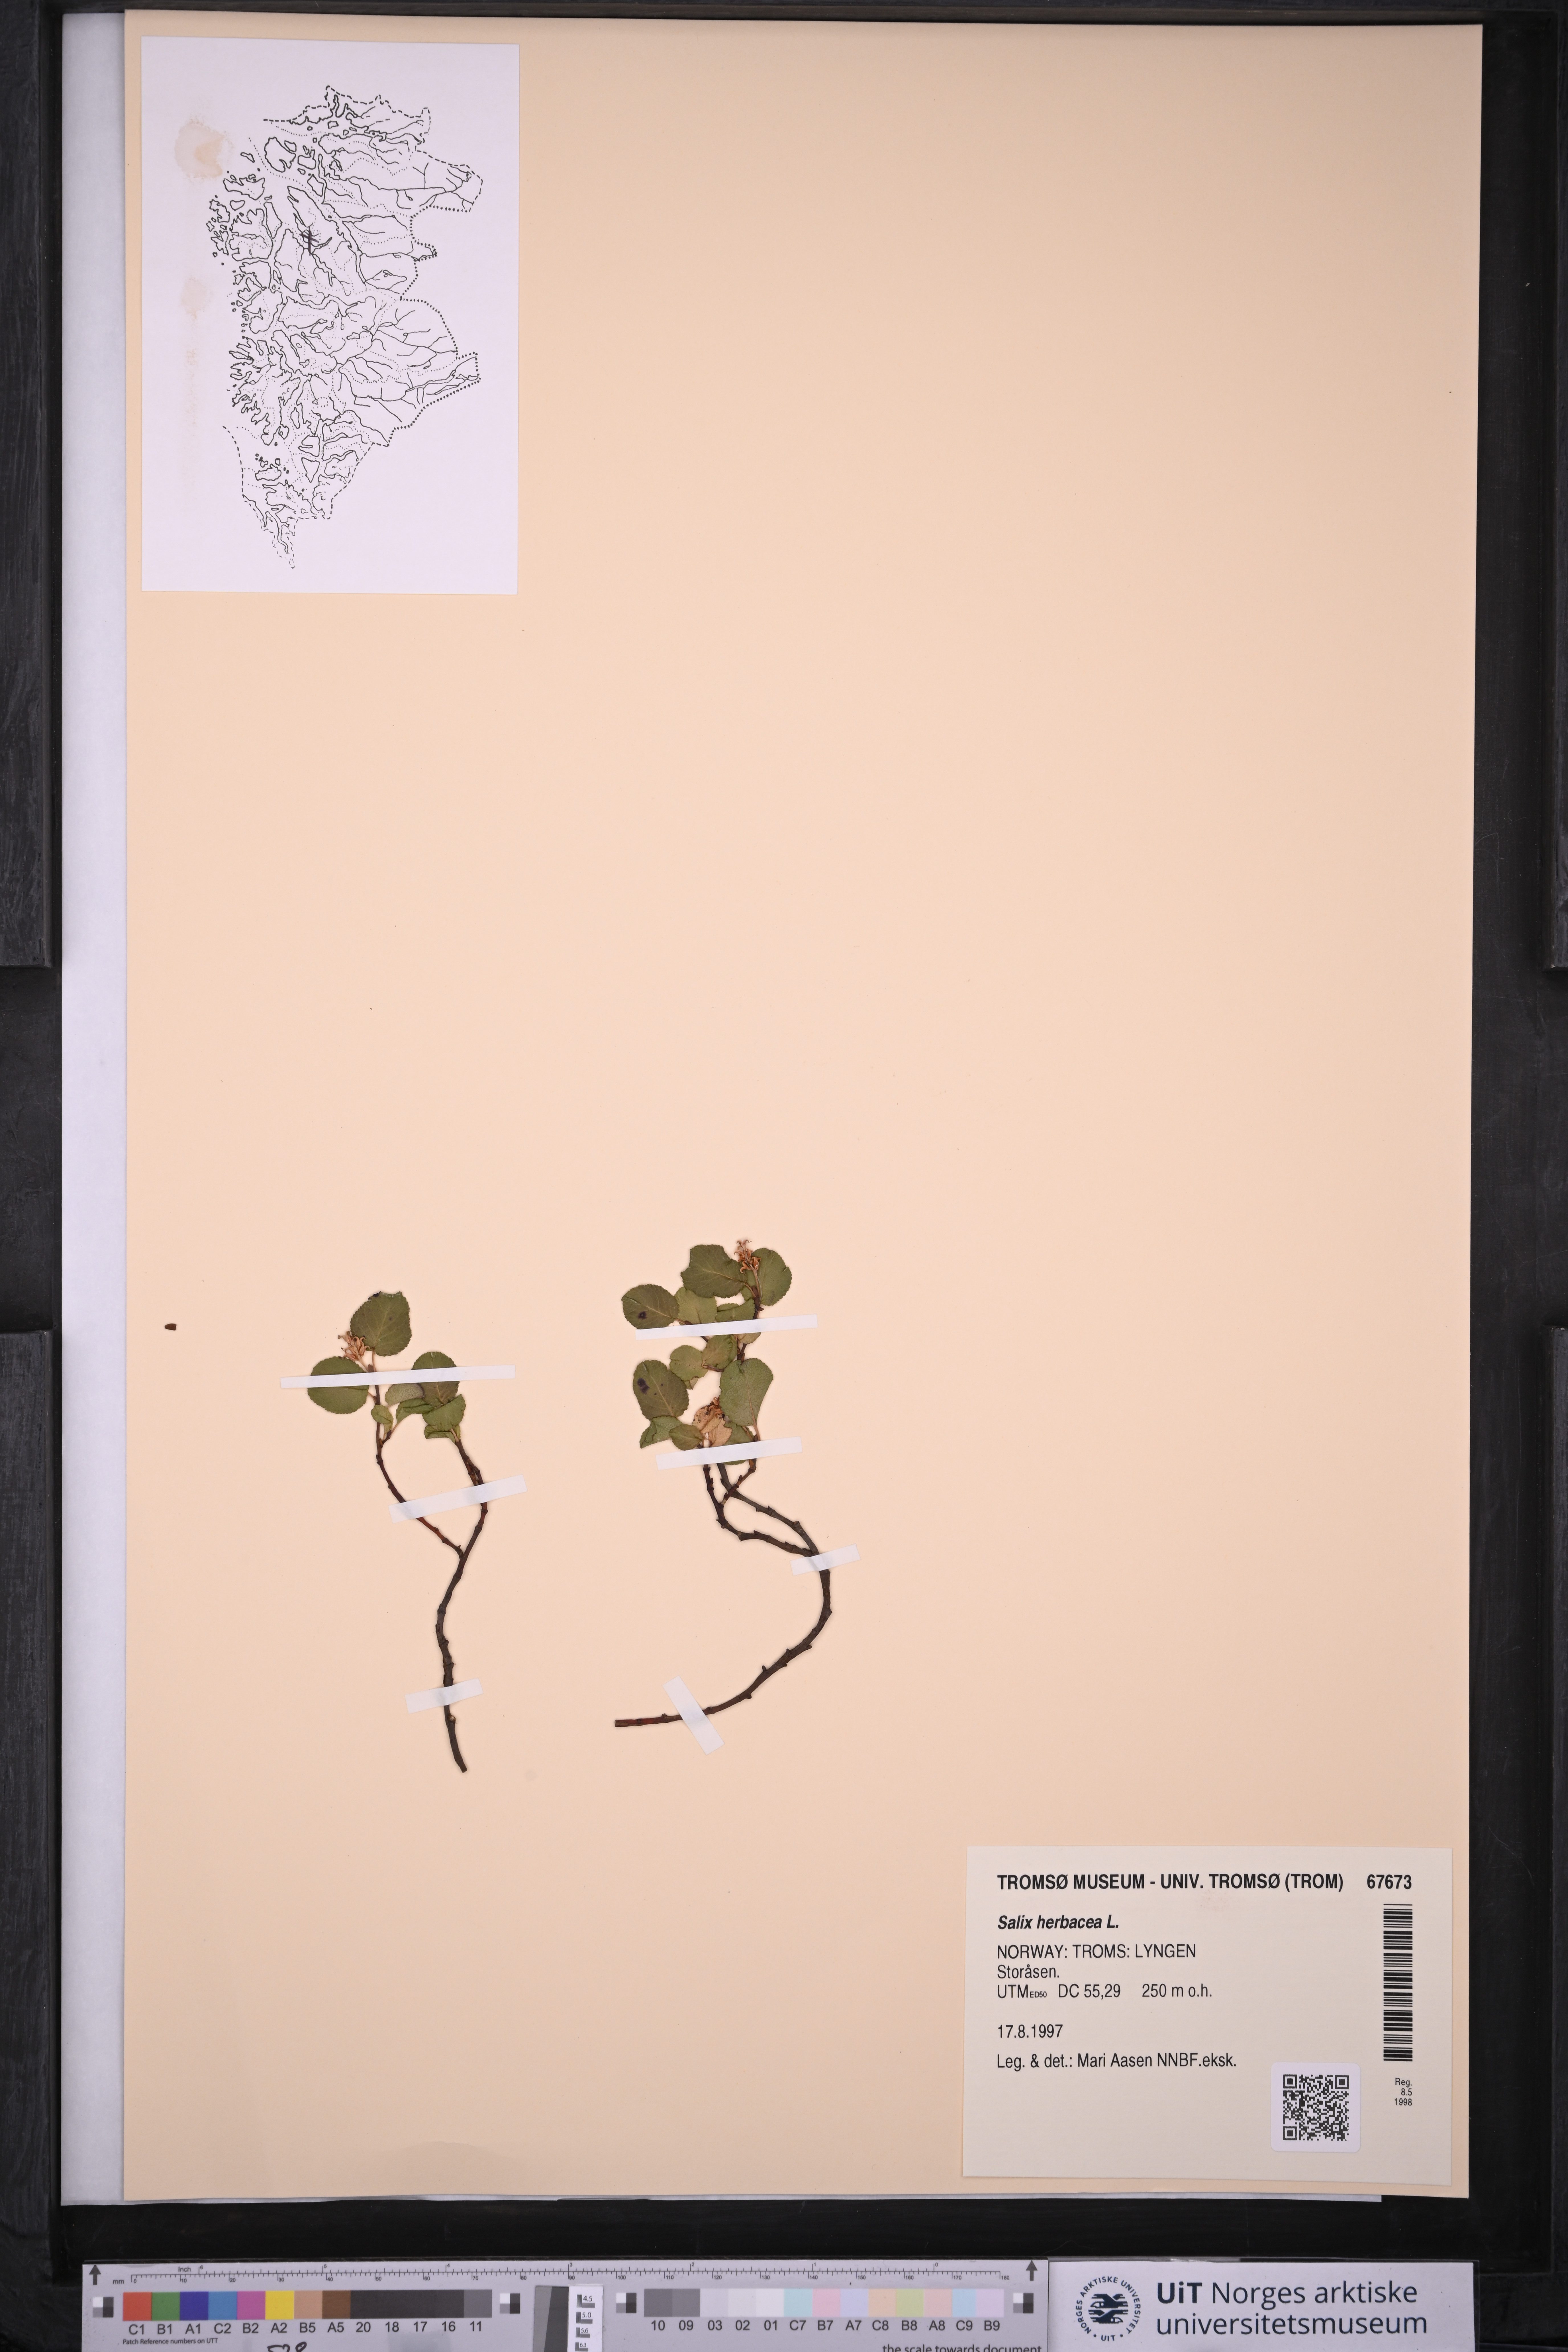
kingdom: Plantae
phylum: Tracheophyta
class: Magnoliopsida
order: Malpighiales
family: Salicaceae
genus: Salix
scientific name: Salix herbacea
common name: Dwarf willow
